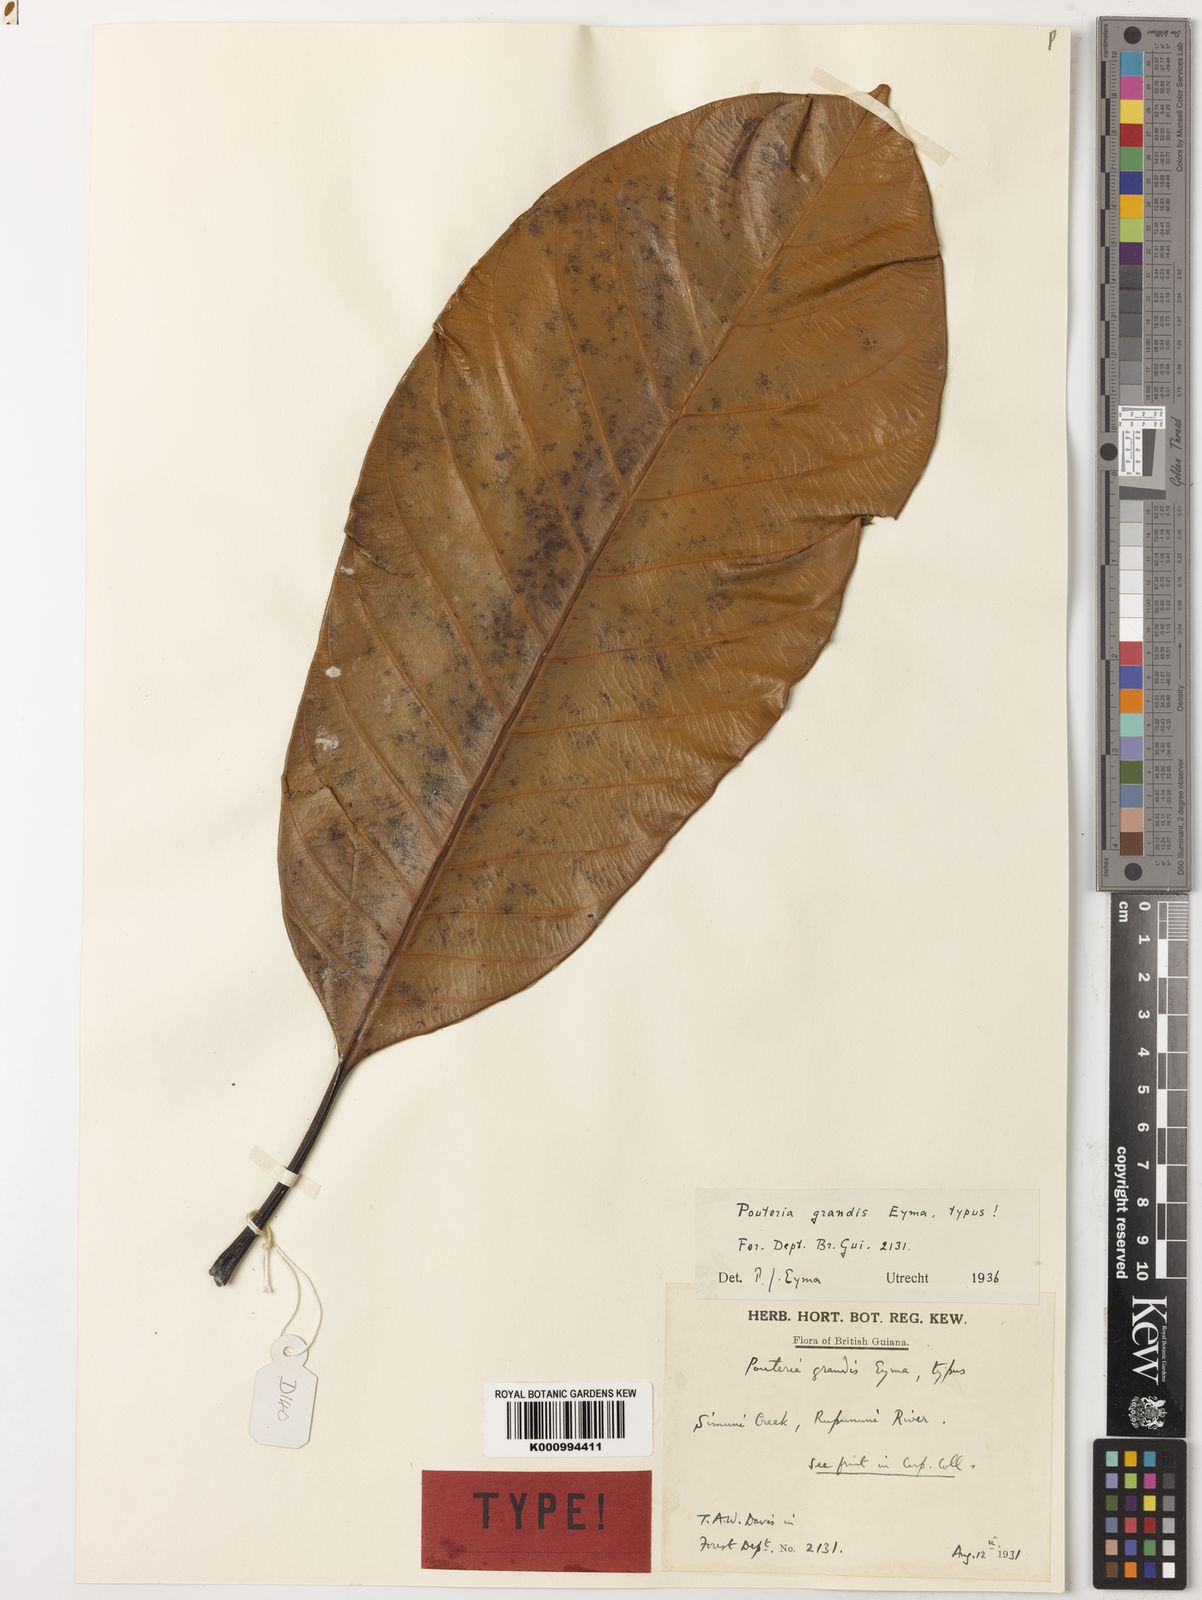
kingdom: Plantae
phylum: Tracheophyta
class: Magnoliopsida
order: Ericales
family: Sapotaceae
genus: Pouteria
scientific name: Pouteria grandis
